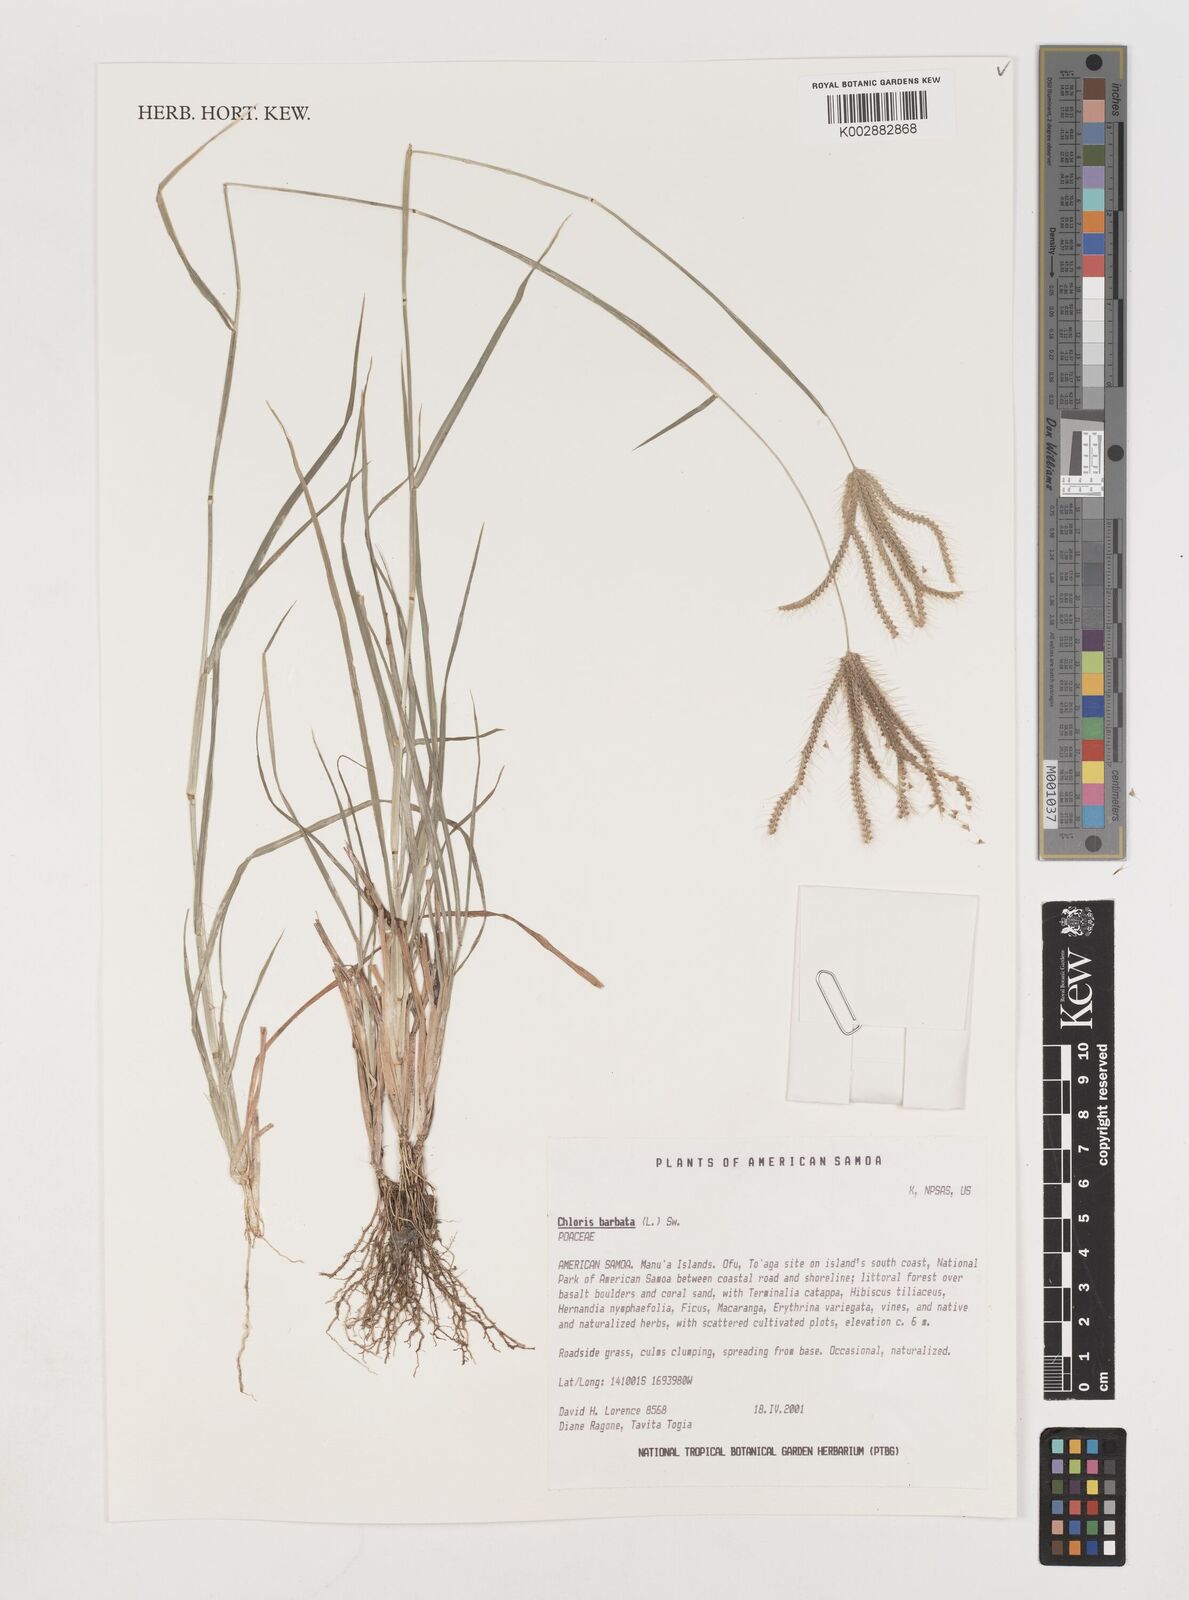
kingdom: Plantae
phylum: Tracheophyta
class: Liliopsida
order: Poales
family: Poaceae
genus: Chloris
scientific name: Chloris barbata
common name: Swollen fingergrass
